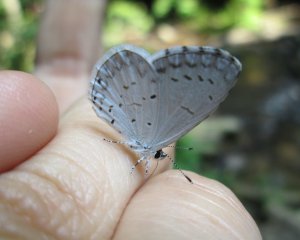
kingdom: Animalia
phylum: Arthropoda
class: Insecta
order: Lepidoptera
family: Lycaenidae
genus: Cyaniris
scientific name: Cyaniris neglecta
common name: Summer Azure
